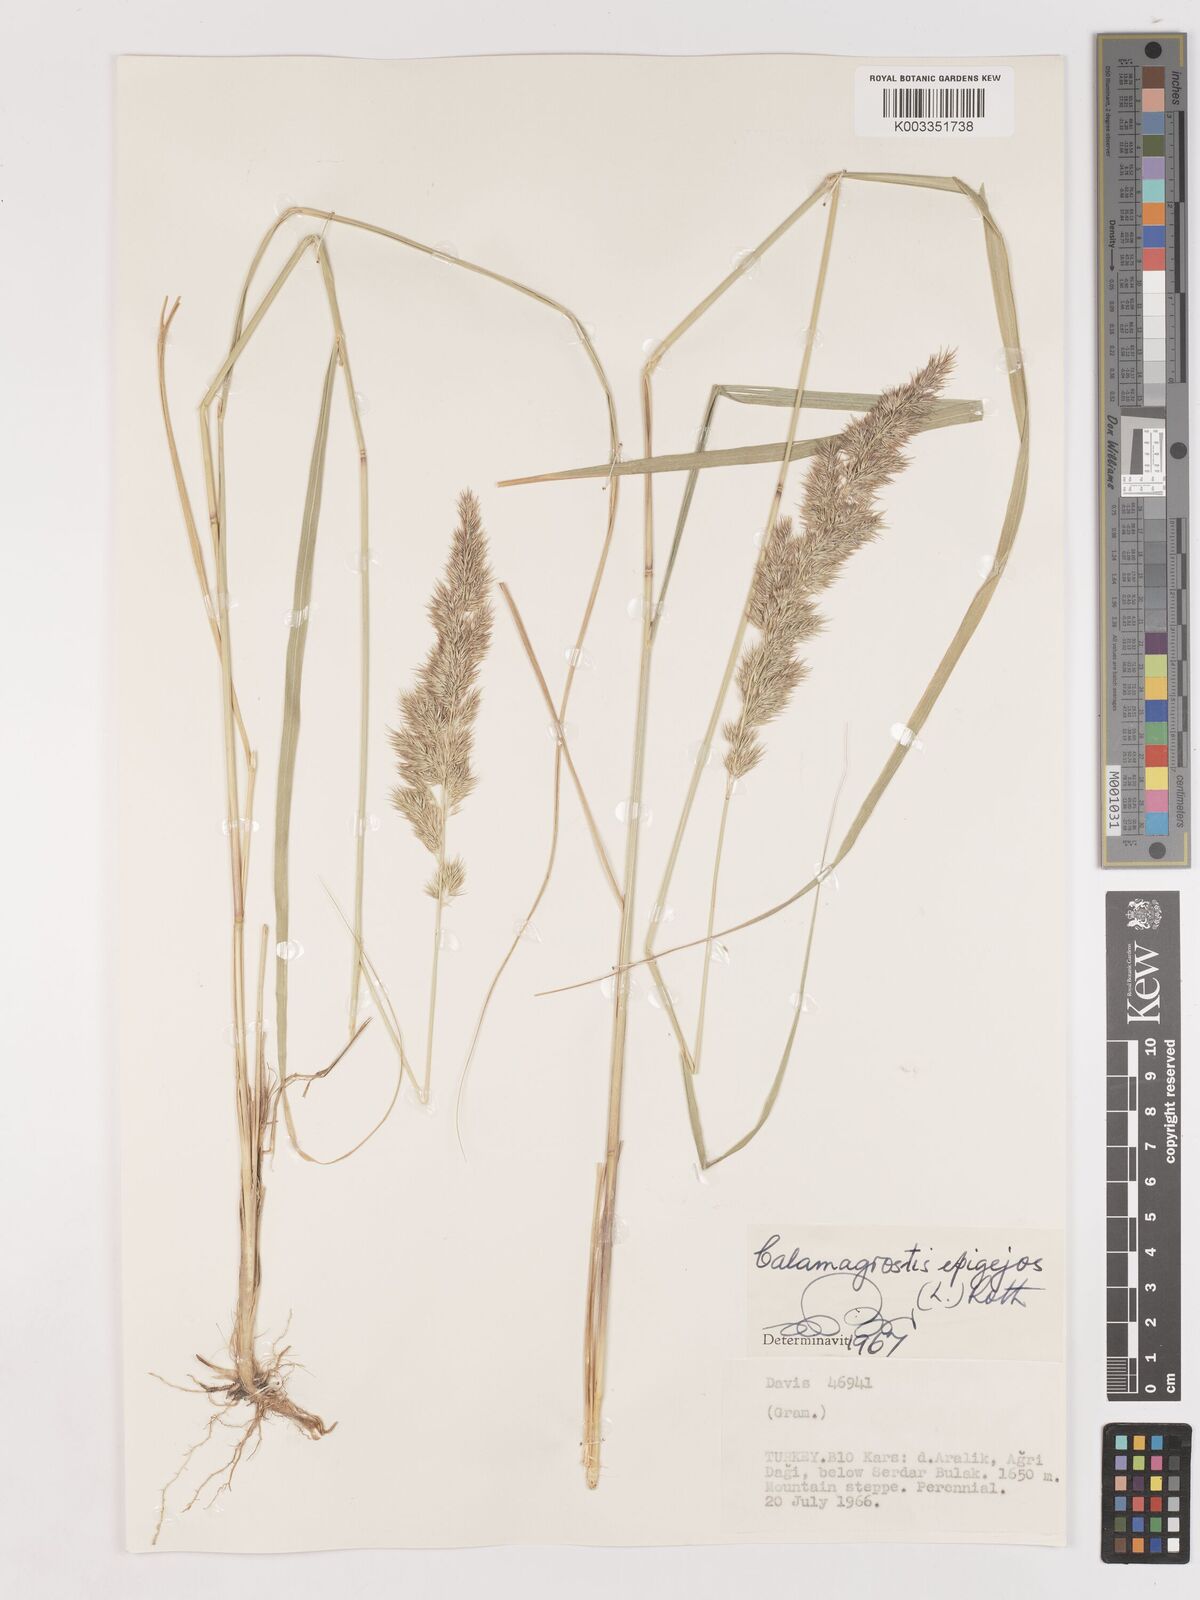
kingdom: Plantae
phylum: Tracheophyta
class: Liliopsida
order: Poales
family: Poaceae
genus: Calamagrostis
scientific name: Calamagrostis
